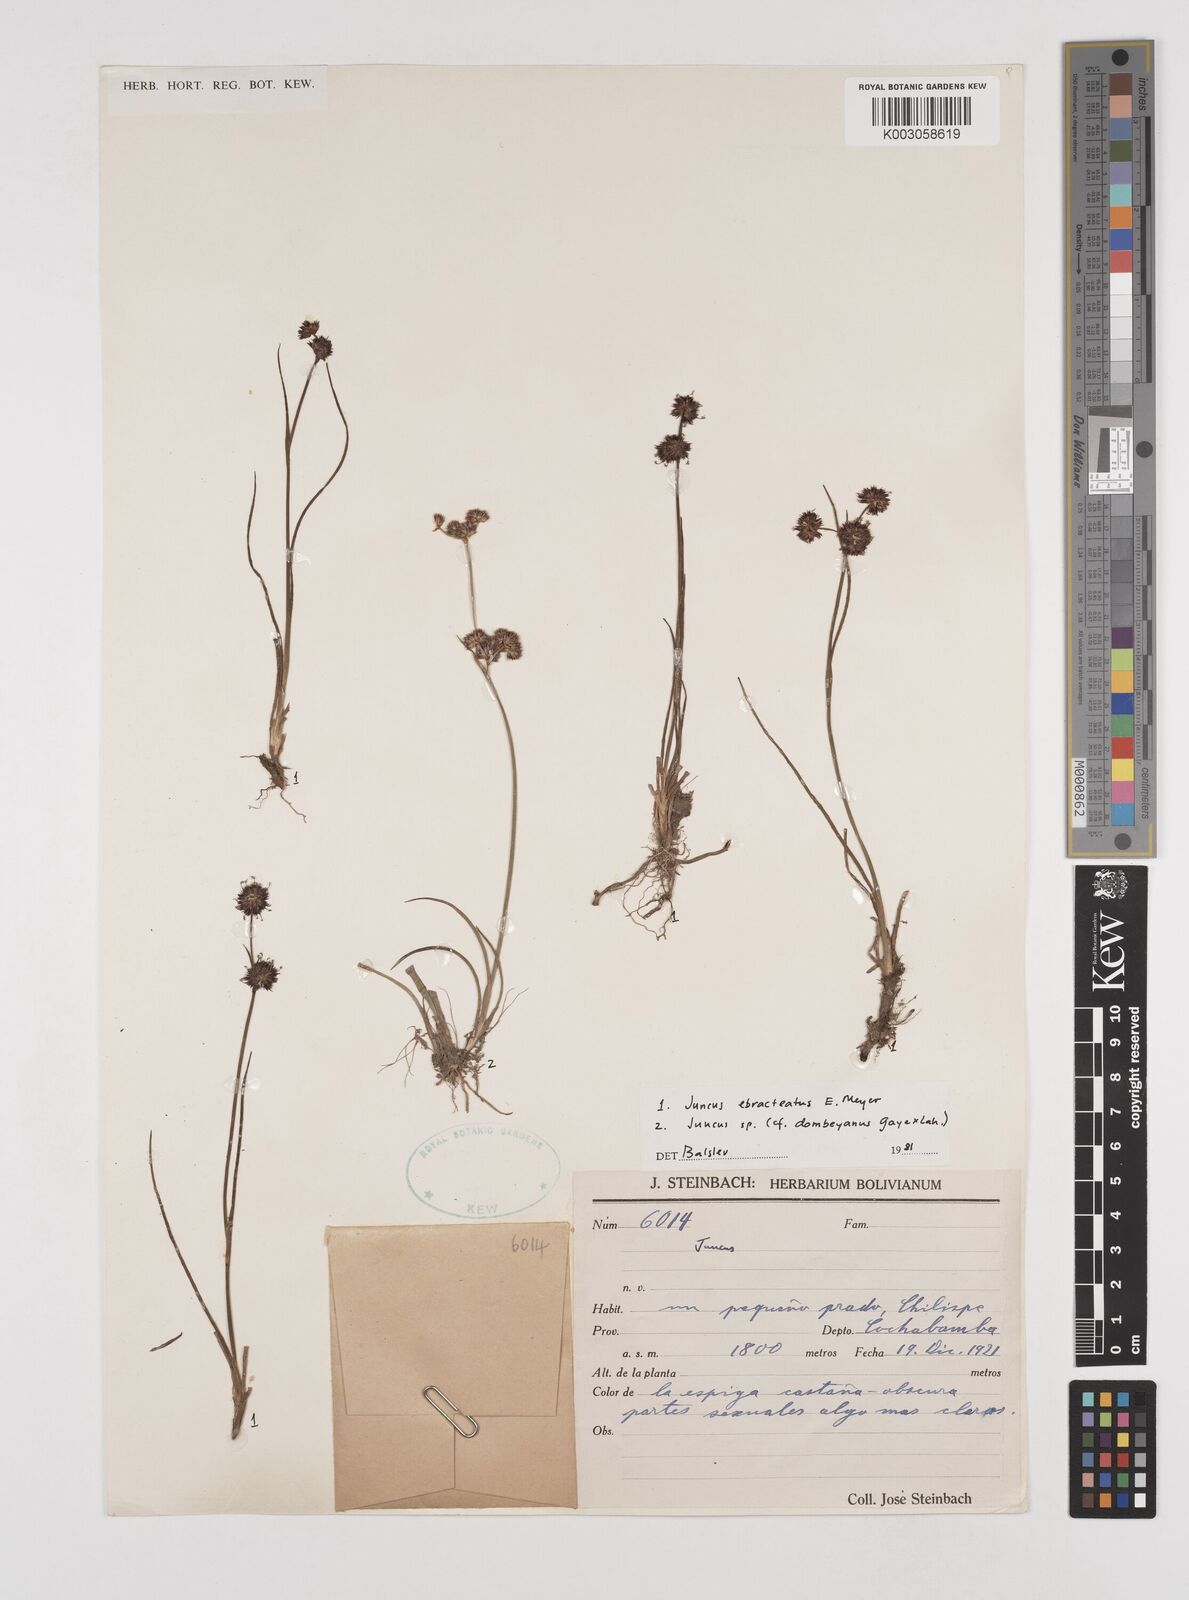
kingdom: Plantae
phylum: Tracheophyta
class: Liliopsida
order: Poales
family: Juncaceae
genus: Juncus
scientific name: Juncus ebracteatus
